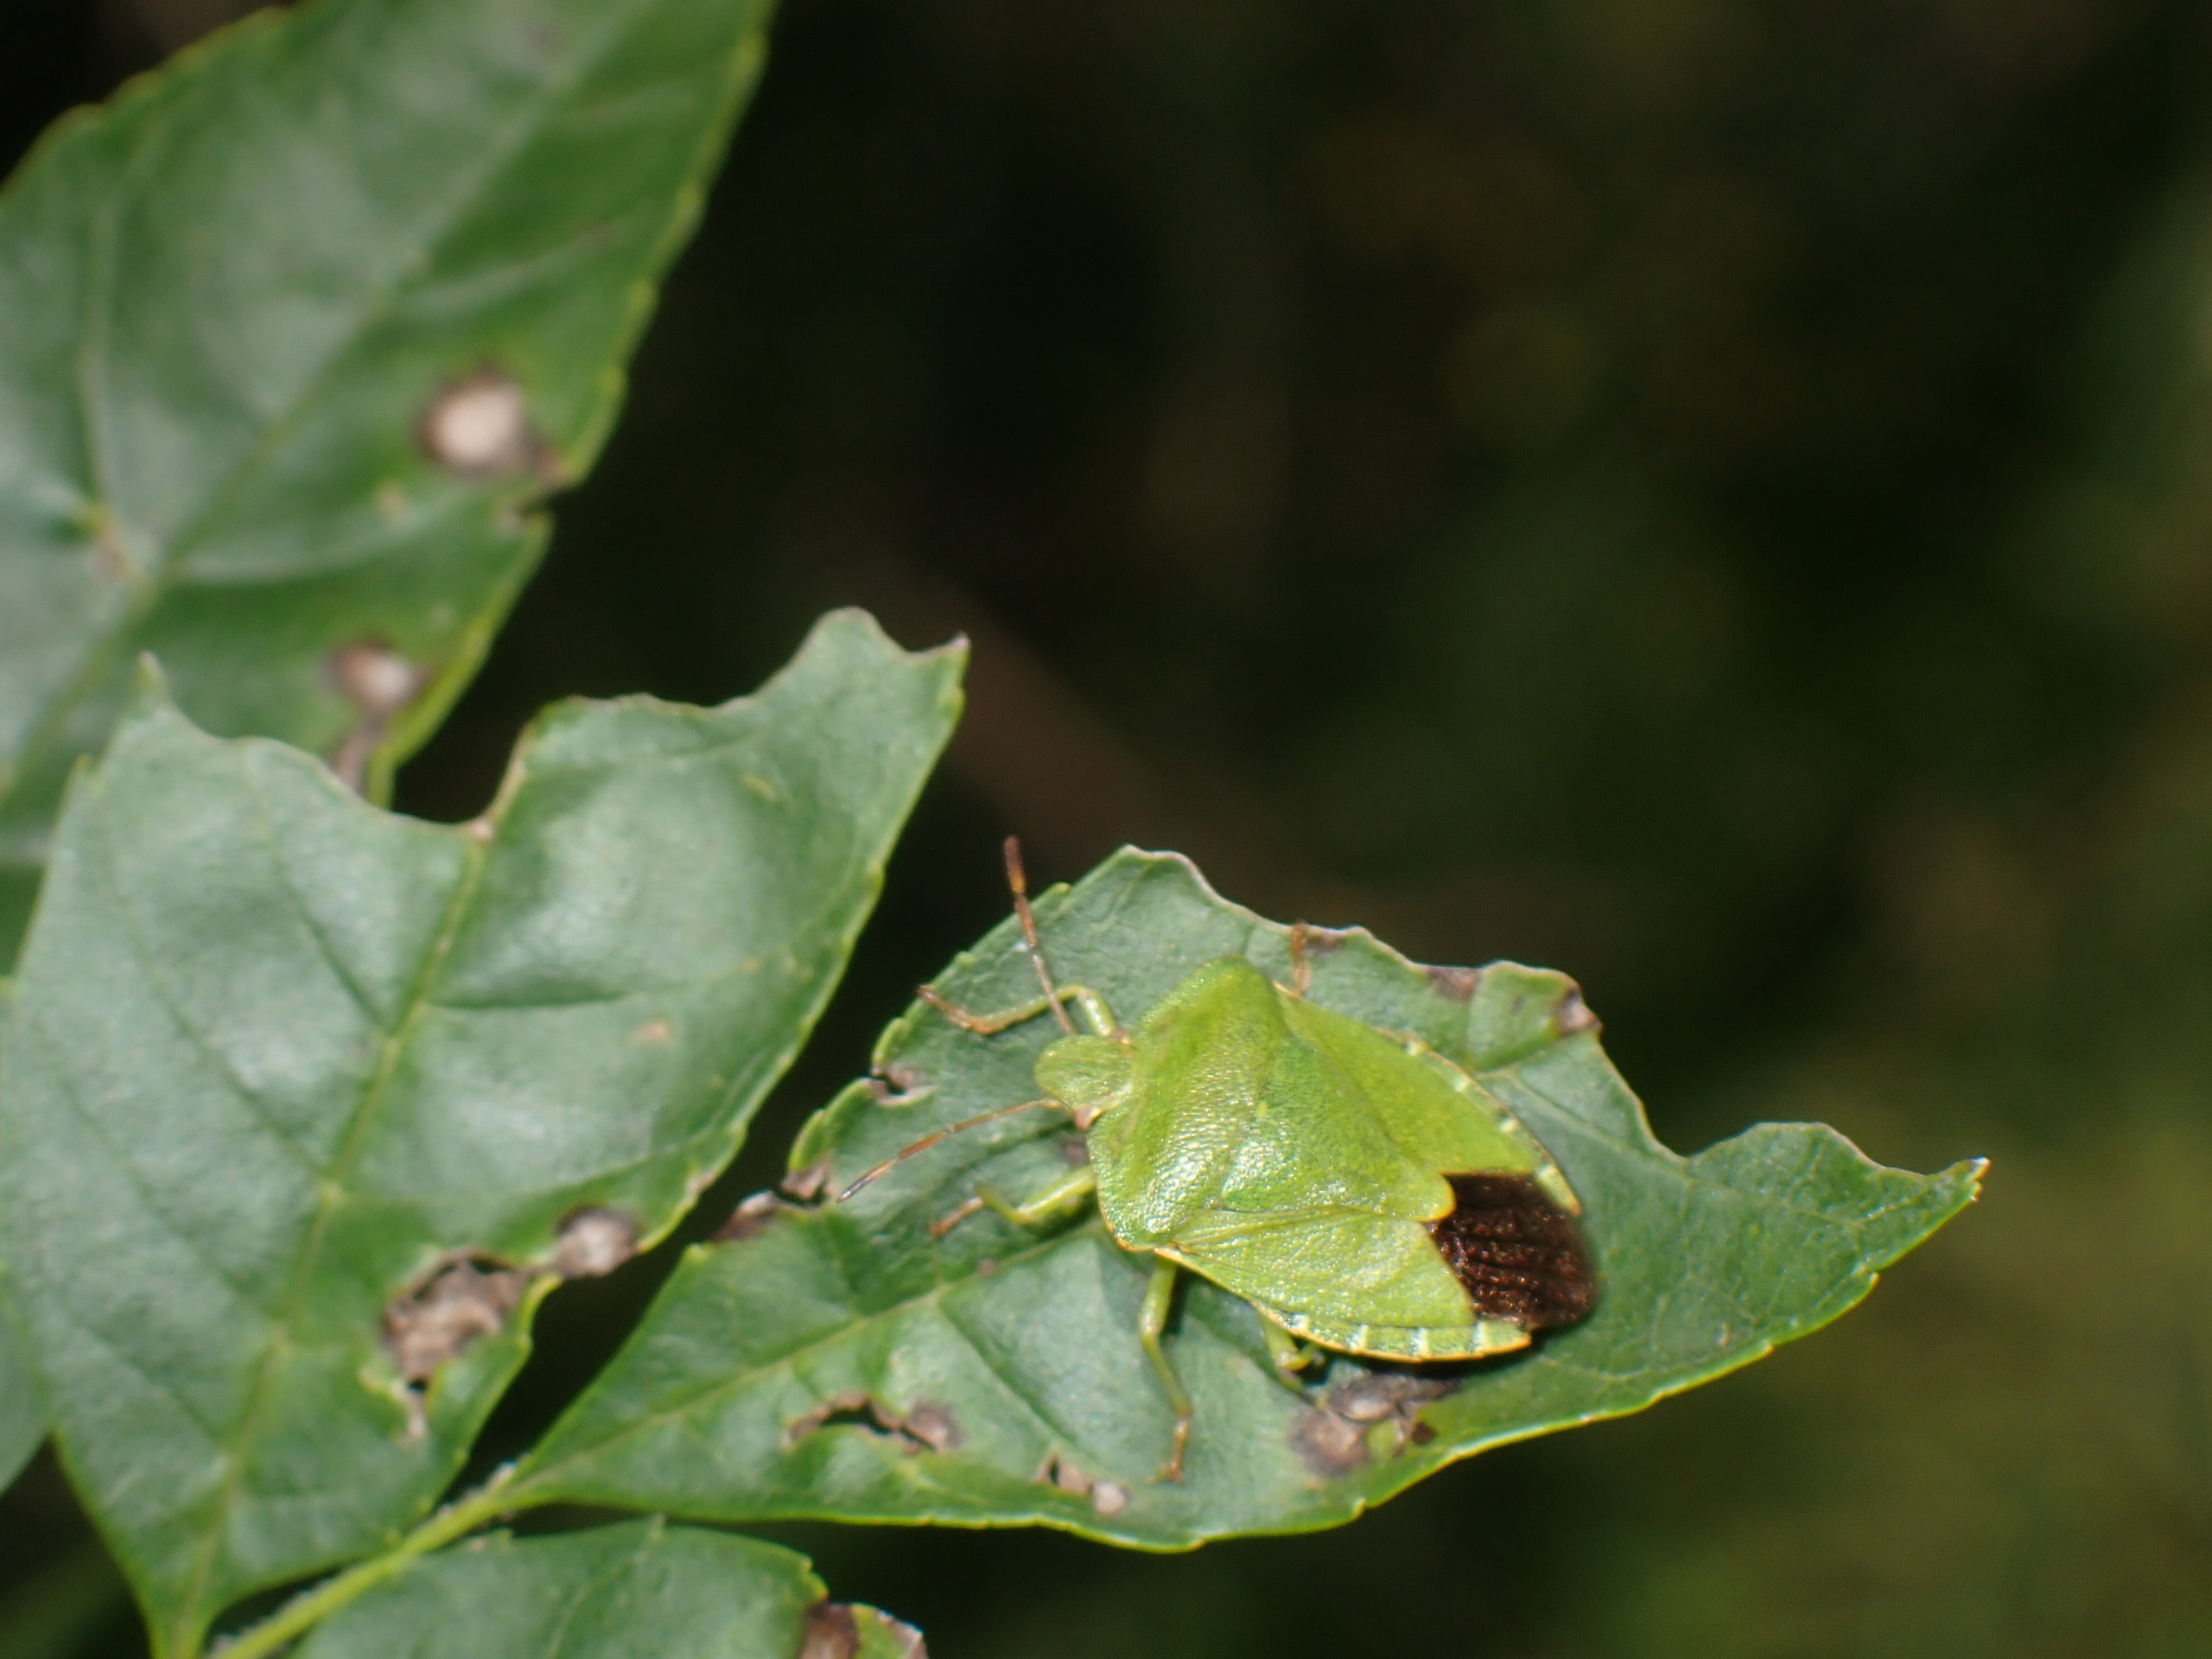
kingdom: Animalia
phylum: Arthropoda
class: Insecta
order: Hemiptera
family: Pentatomidae
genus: Palomena
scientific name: Palomena prasina
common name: Grøn bredtæge
